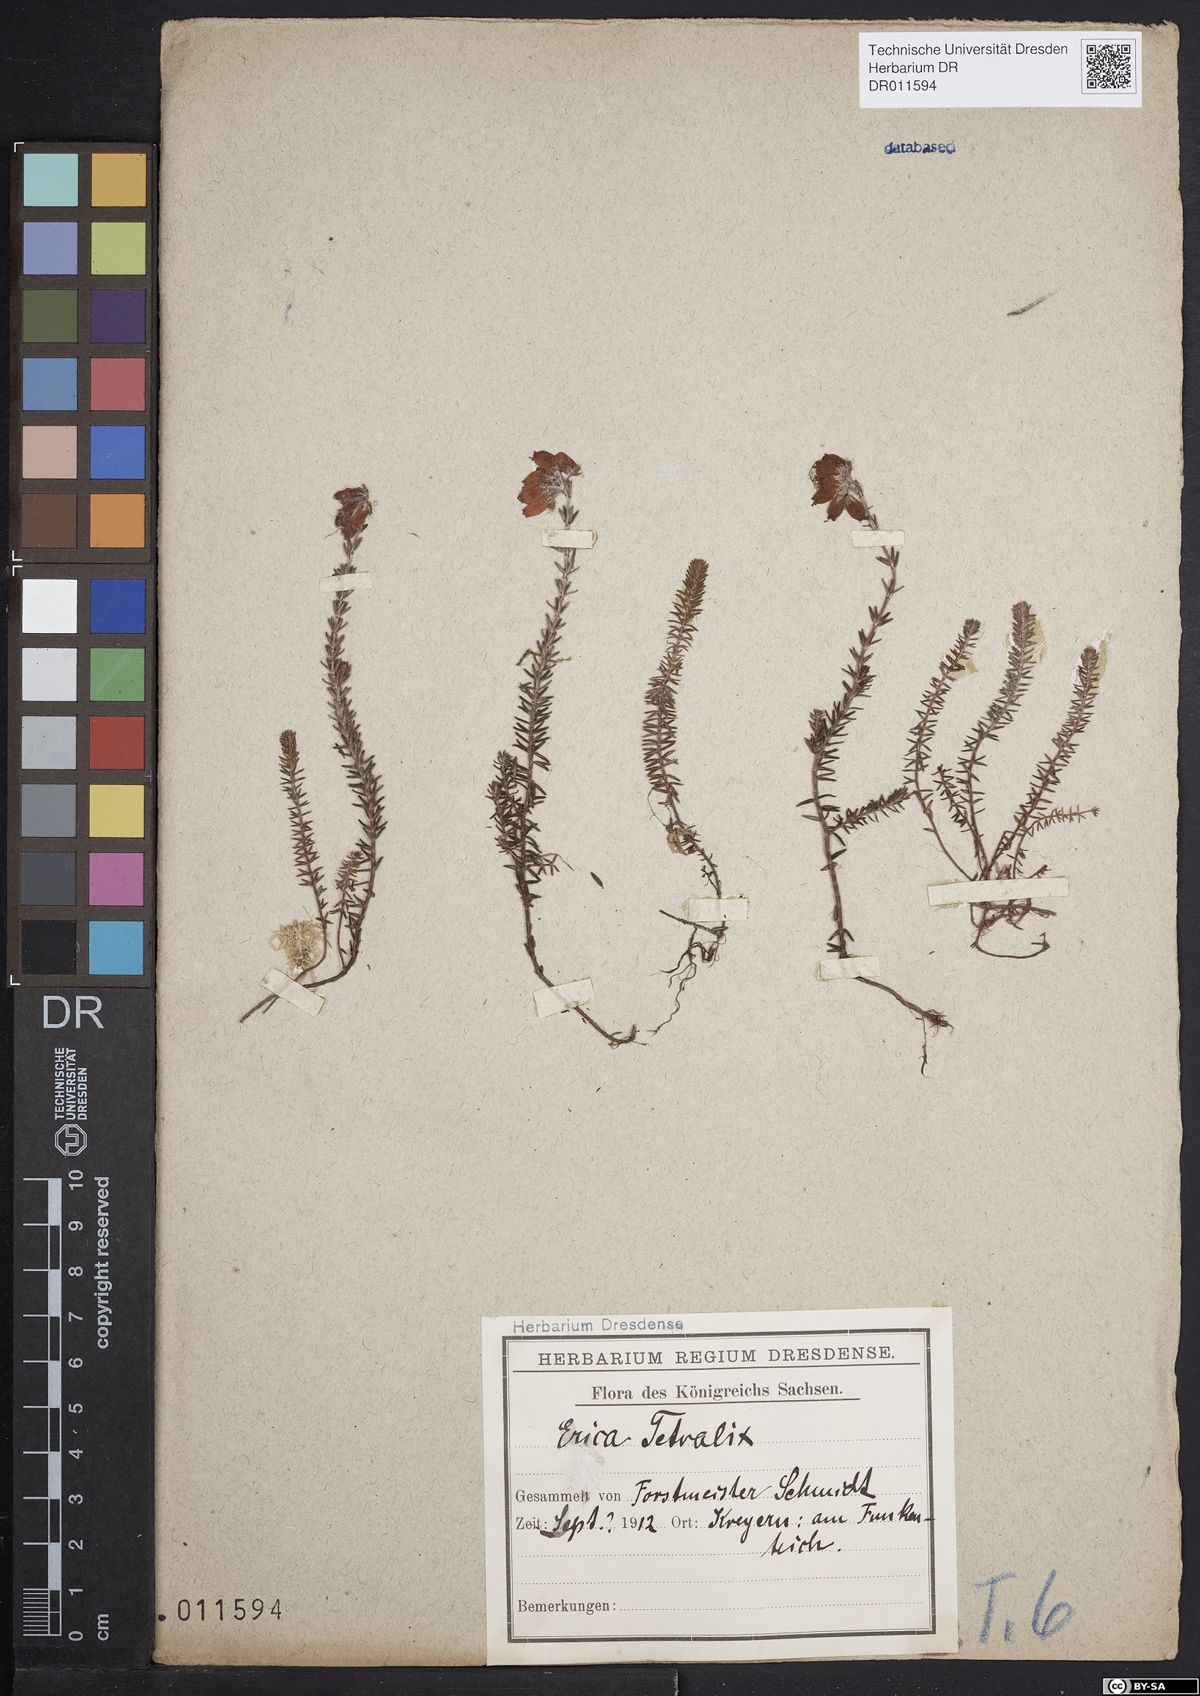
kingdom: Plantae
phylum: Tracheophyta
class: Magnoliopsida
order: Ericales
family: Ericaceae
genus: Erica
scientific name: Erica tetralix
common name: Cross-leaved heath
